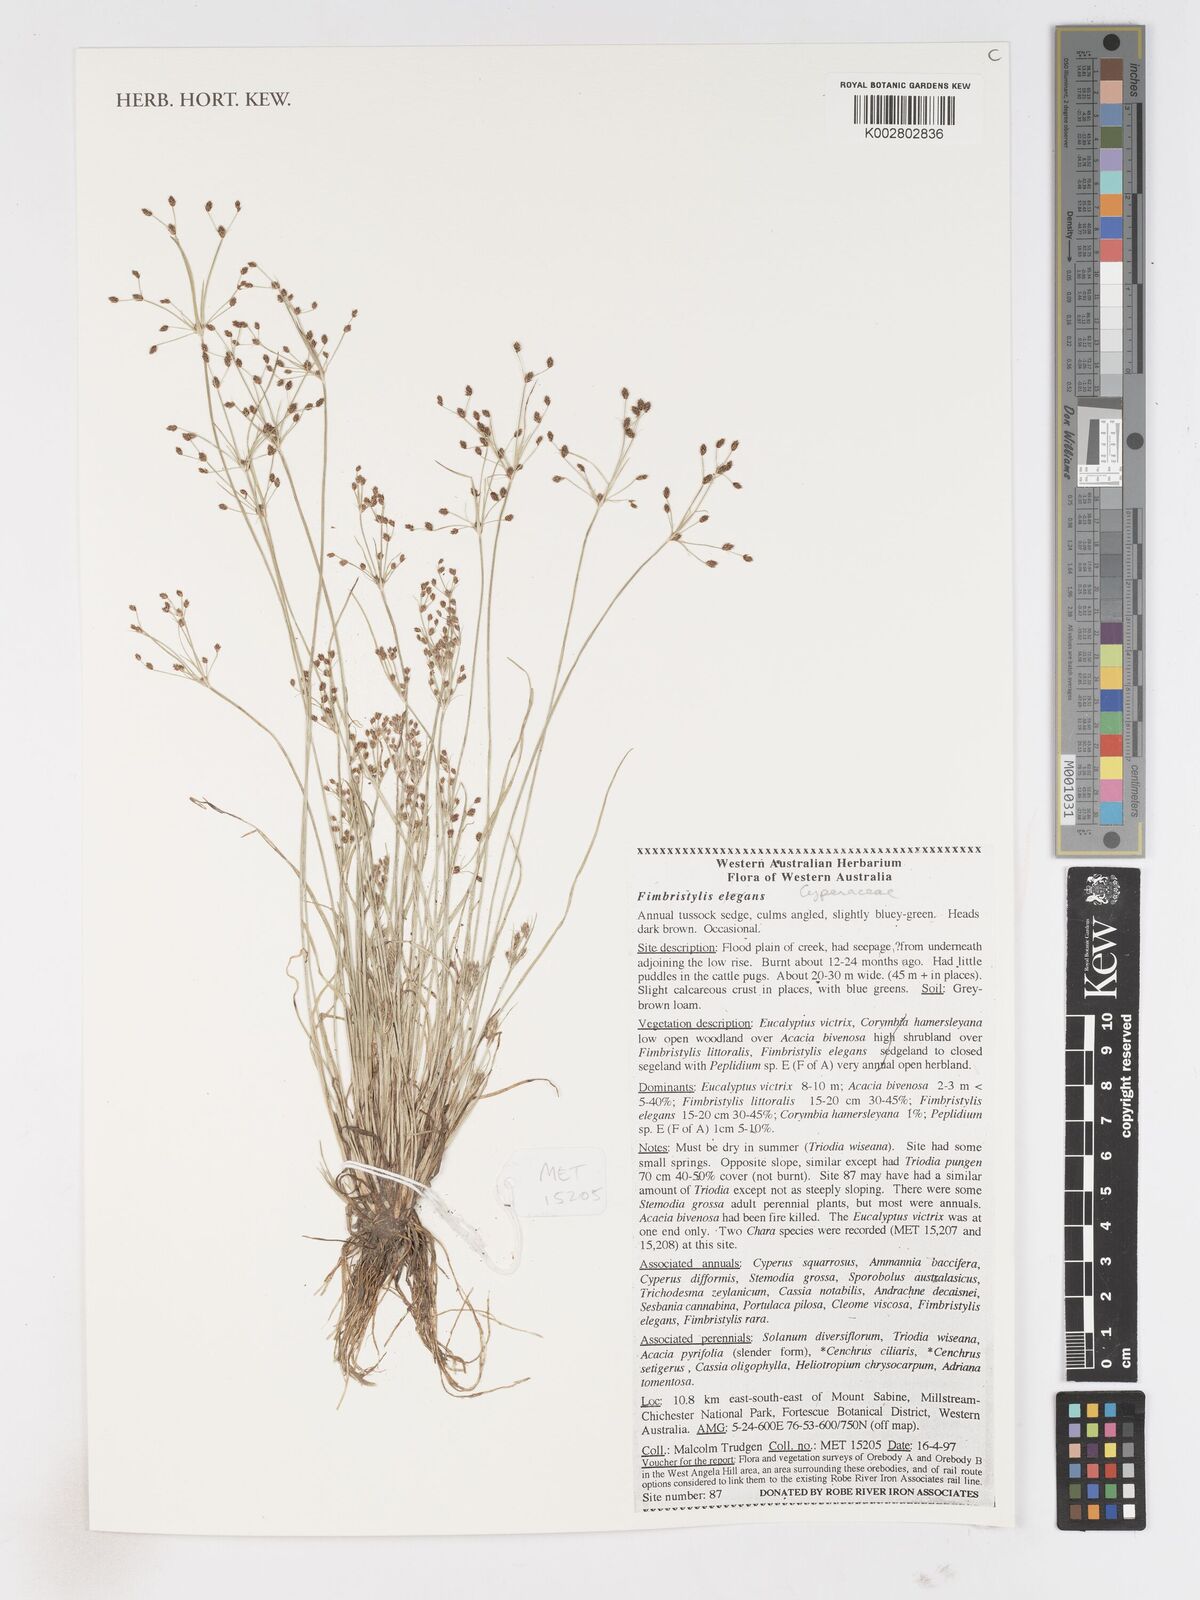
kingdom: Plantae
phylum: Tracheophyta
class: Liliopsida
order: Poales
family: Cyperaceae
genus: Fimbristylis
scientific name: Fimbristylis elegans
